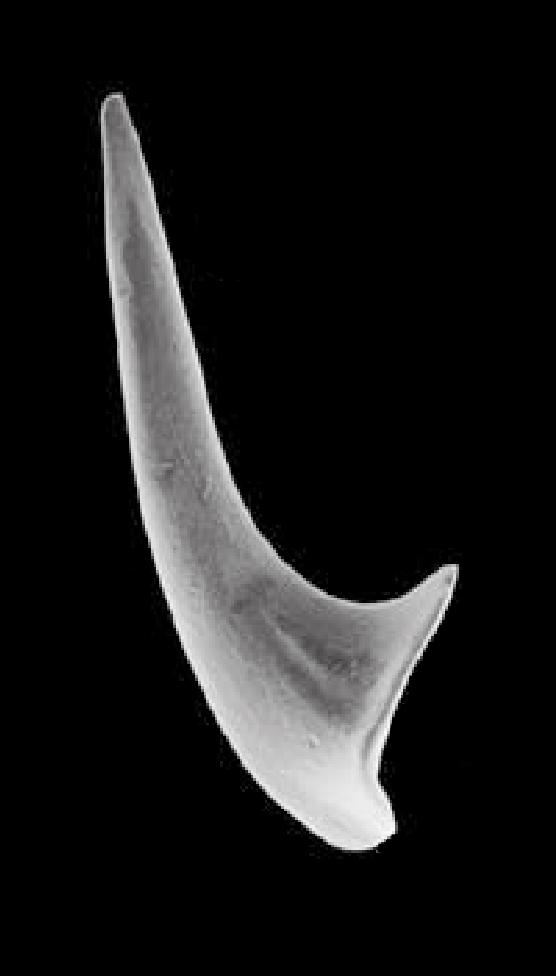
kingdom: Animalia
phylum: Chordata
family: Protopanderodontidae
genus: Variabiloconus
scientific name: Variabiloconus transiapeticus
